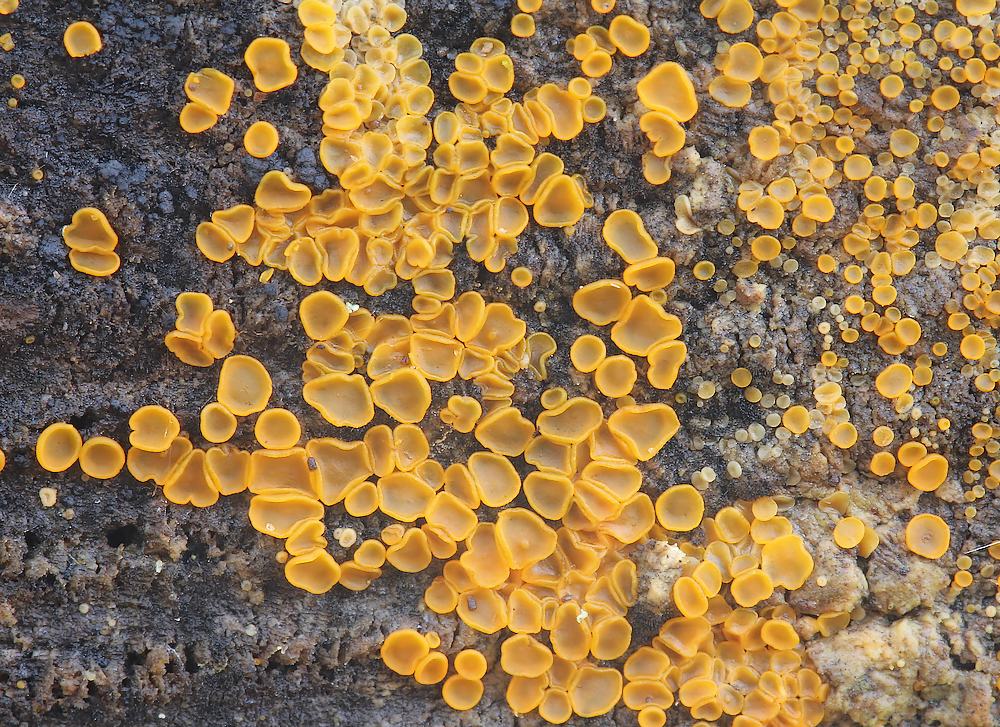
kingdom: Fungi
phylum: Ascomycota
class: Orbiliomycetes
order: Orbiliales
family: Orbiliaceae
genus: Orbilia
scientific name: Orbilia xanthostigma
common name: krumsporet voksskive
